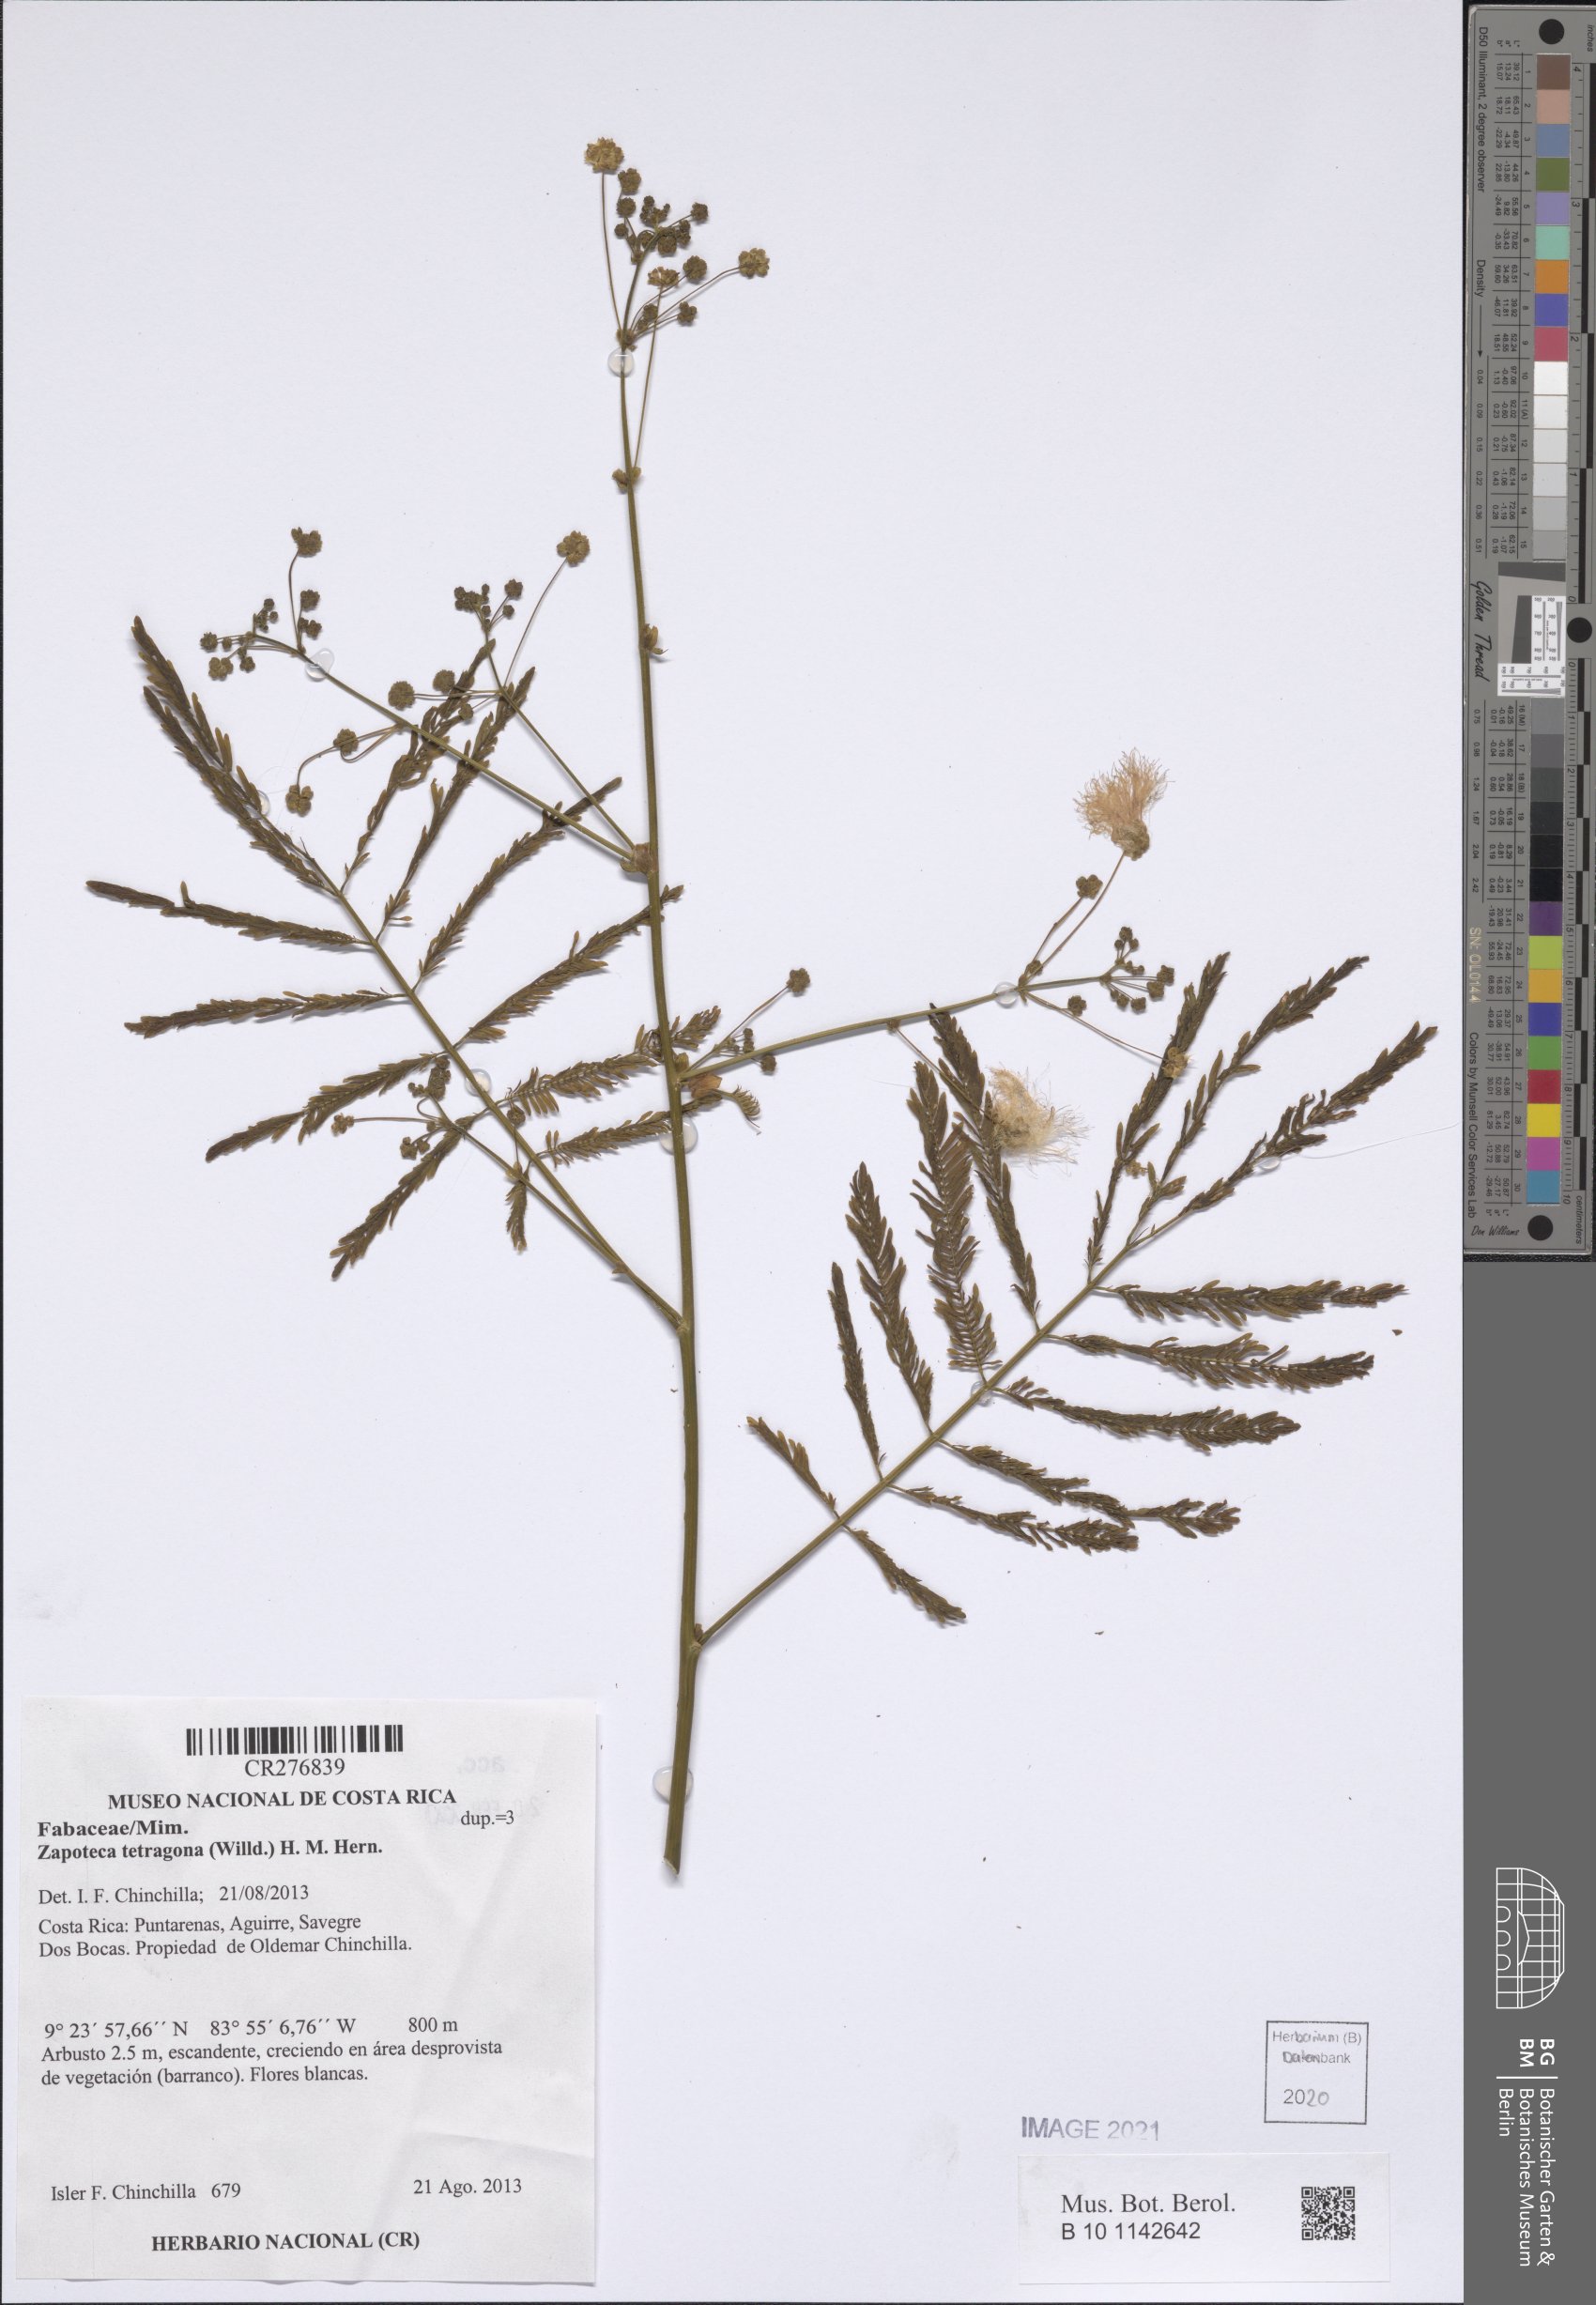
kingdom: Plantae
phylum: Tracheophyta
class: Magnoliopsida
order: Fabales
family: Fabaceae
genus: Zapoteca
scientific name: Zapoteca tetragona
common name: White calliandra
